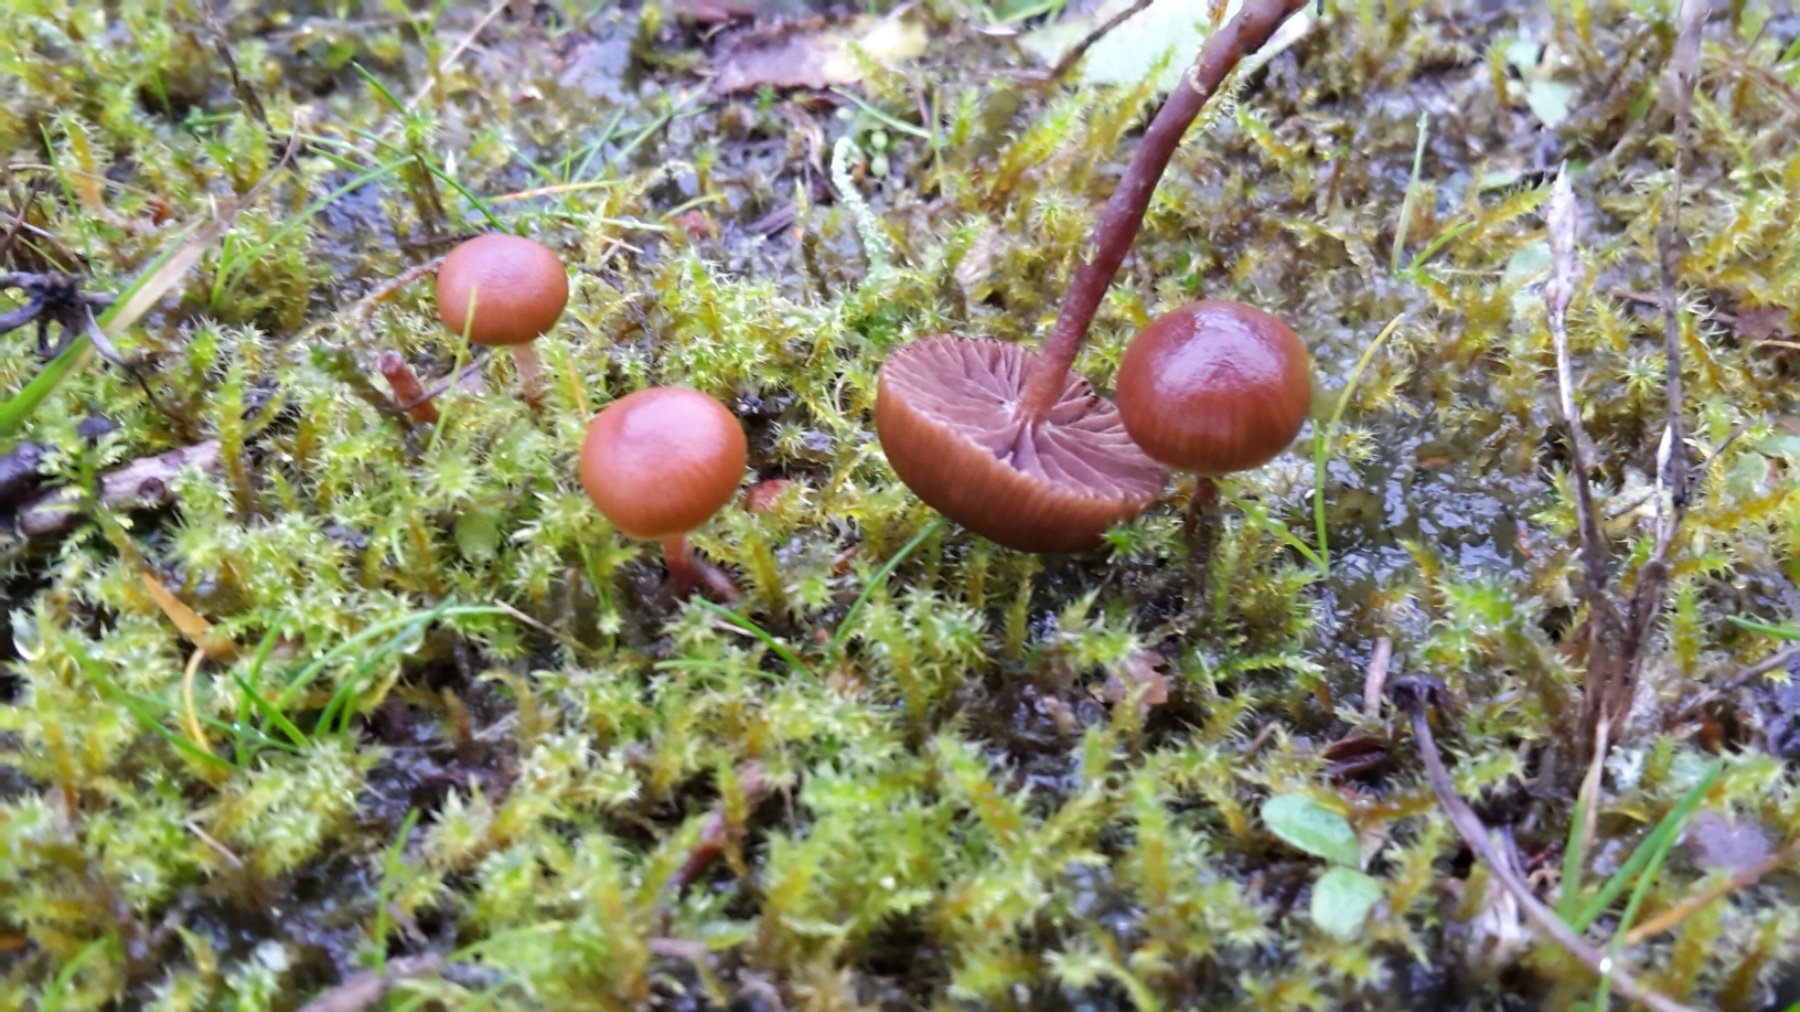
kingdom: Fungi
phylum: Basidiomycota
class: Agaricomycetes
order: Agaricales
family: Strophariaceae
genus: Deconica
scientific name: Deconica montana
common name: rødbrun stråhat
